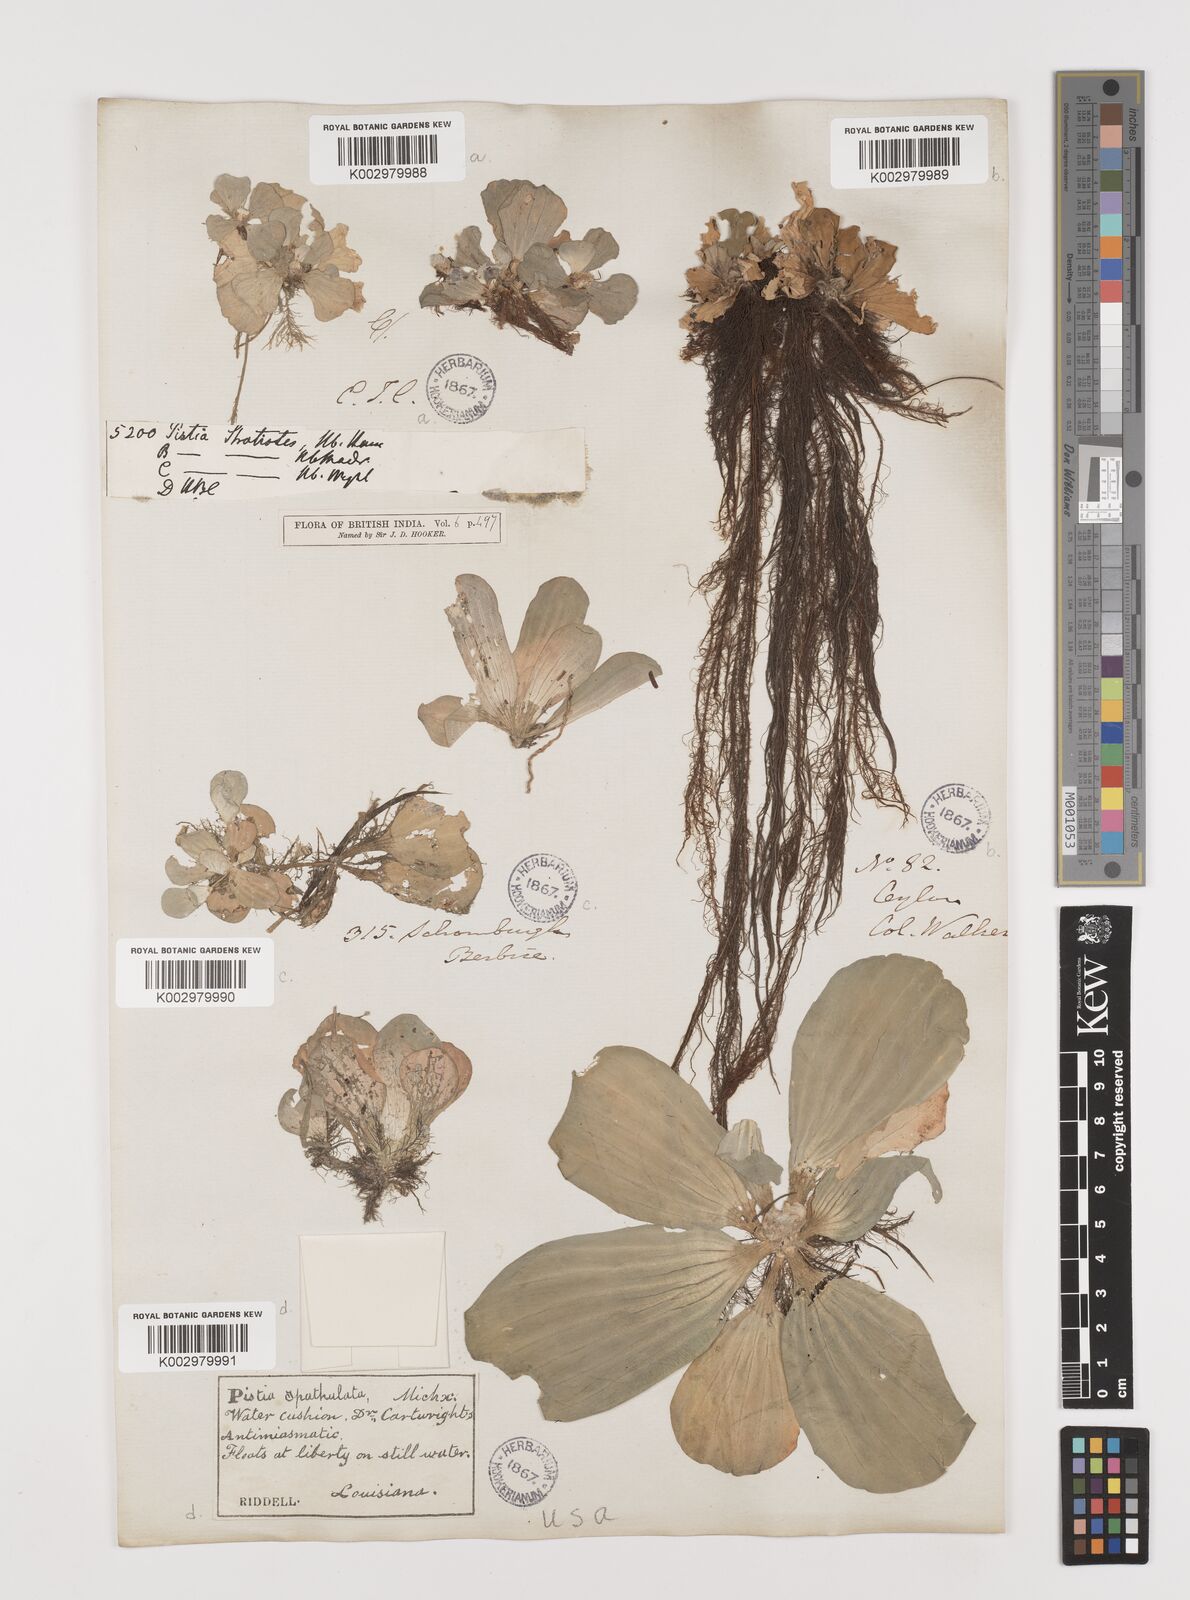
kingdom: Plantae
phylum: Tracheophyta
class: Liliopsida
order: Alismatales
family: Araceae
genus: Pistia
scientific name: Pistia stratiotes
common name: Water lettuce
